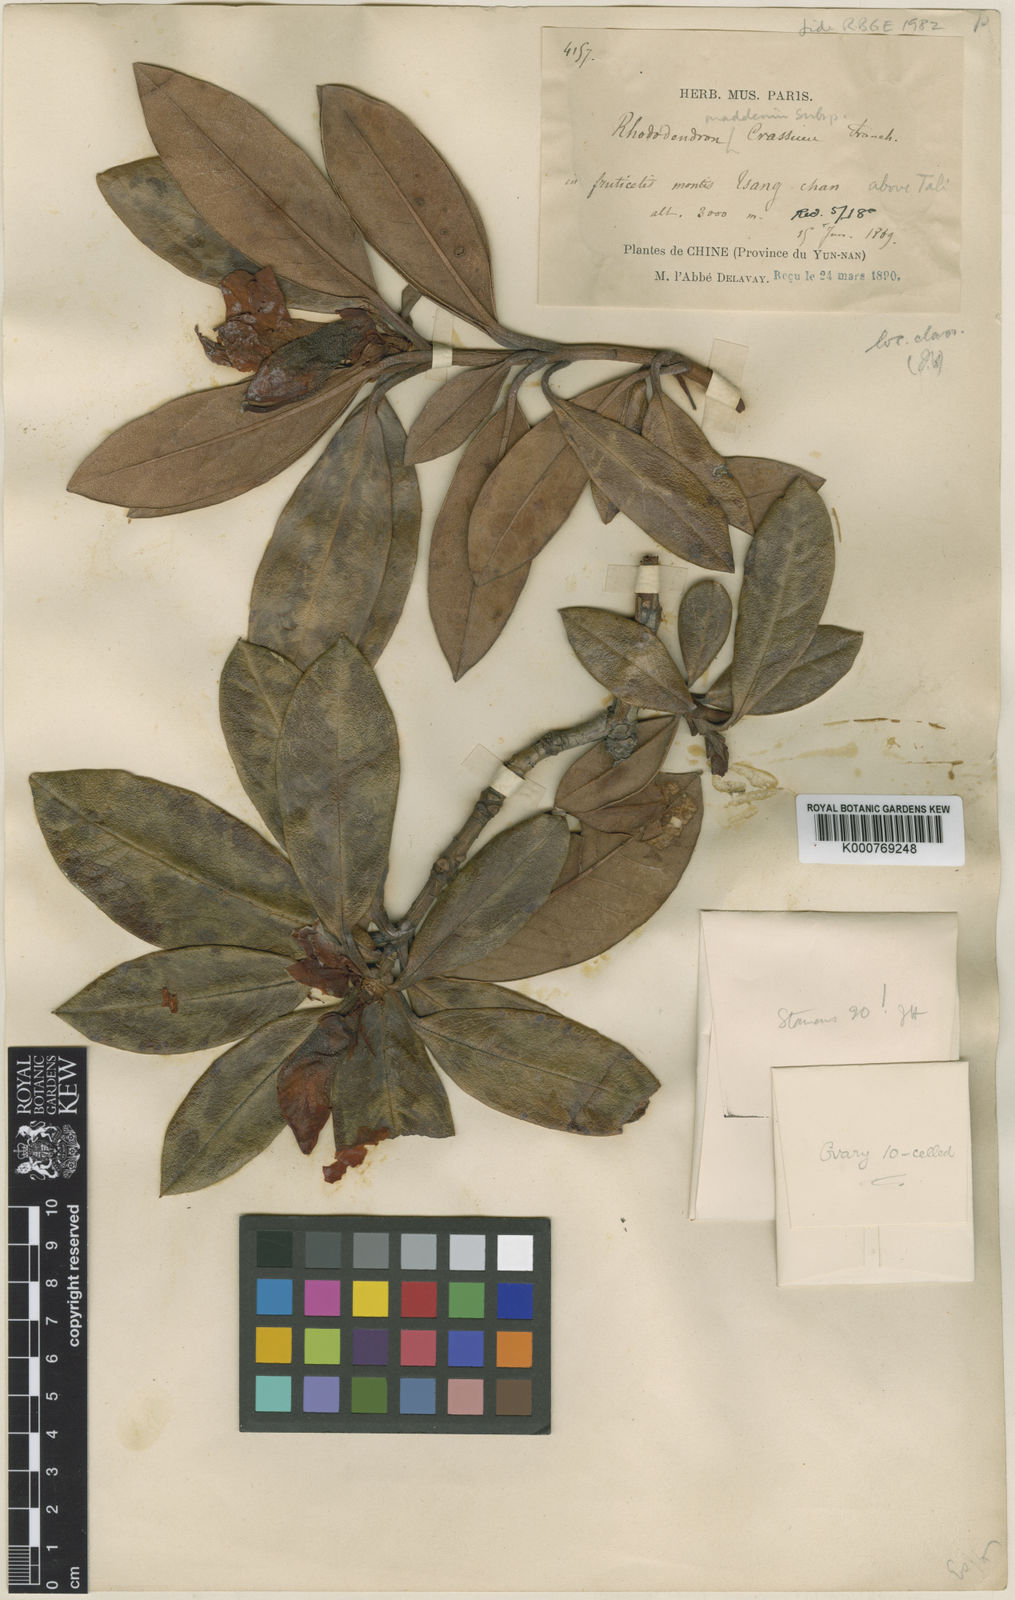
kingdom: Plantae
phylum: Tracheophyta
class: Magnoliopsida
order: Ericales
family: Ericaceae
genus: Rhododendron
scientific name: Rhododendron crassum
